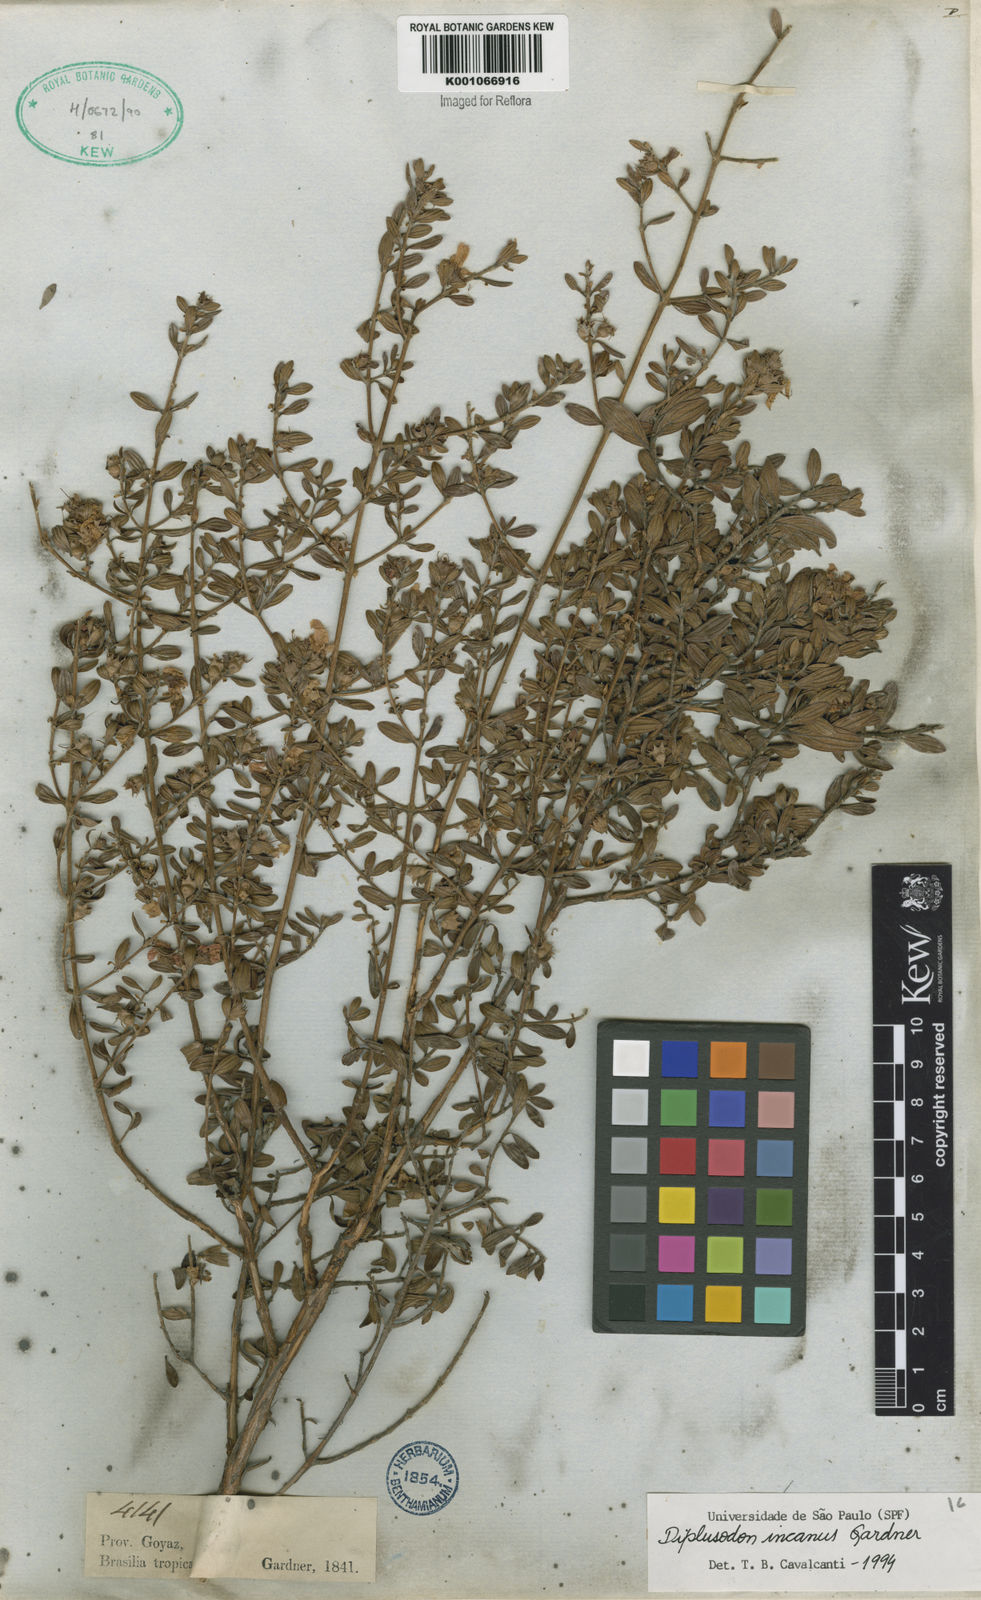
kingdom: Plantae
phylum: Tracheophyta
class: Magnoliopsida
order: Myrtales
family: Lythraceae
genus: Diplusodon
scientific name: Diplusodon incanus
